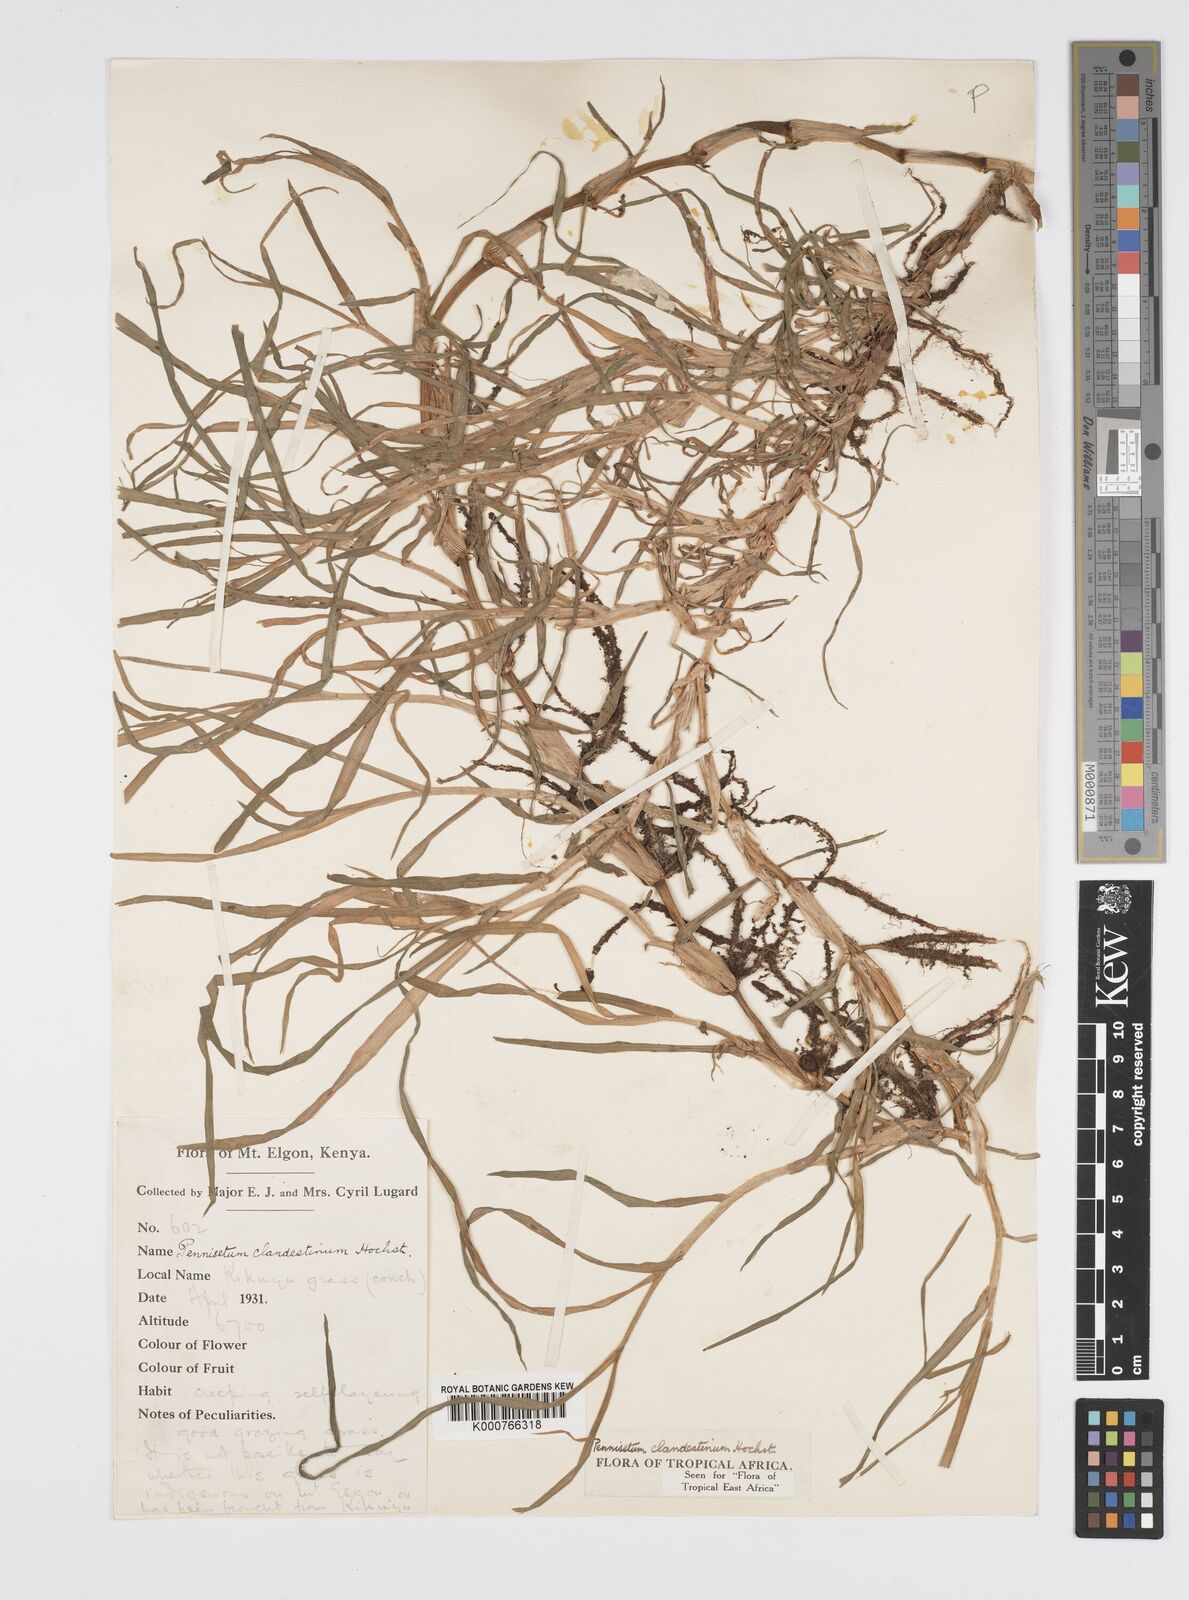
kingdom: Plantae
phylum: Tracheophyta
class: Liliopsida
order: Poales
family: Poaceae
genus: Cenchrus
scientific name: Cenchrus clandestinus
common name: Kikuyugrass
